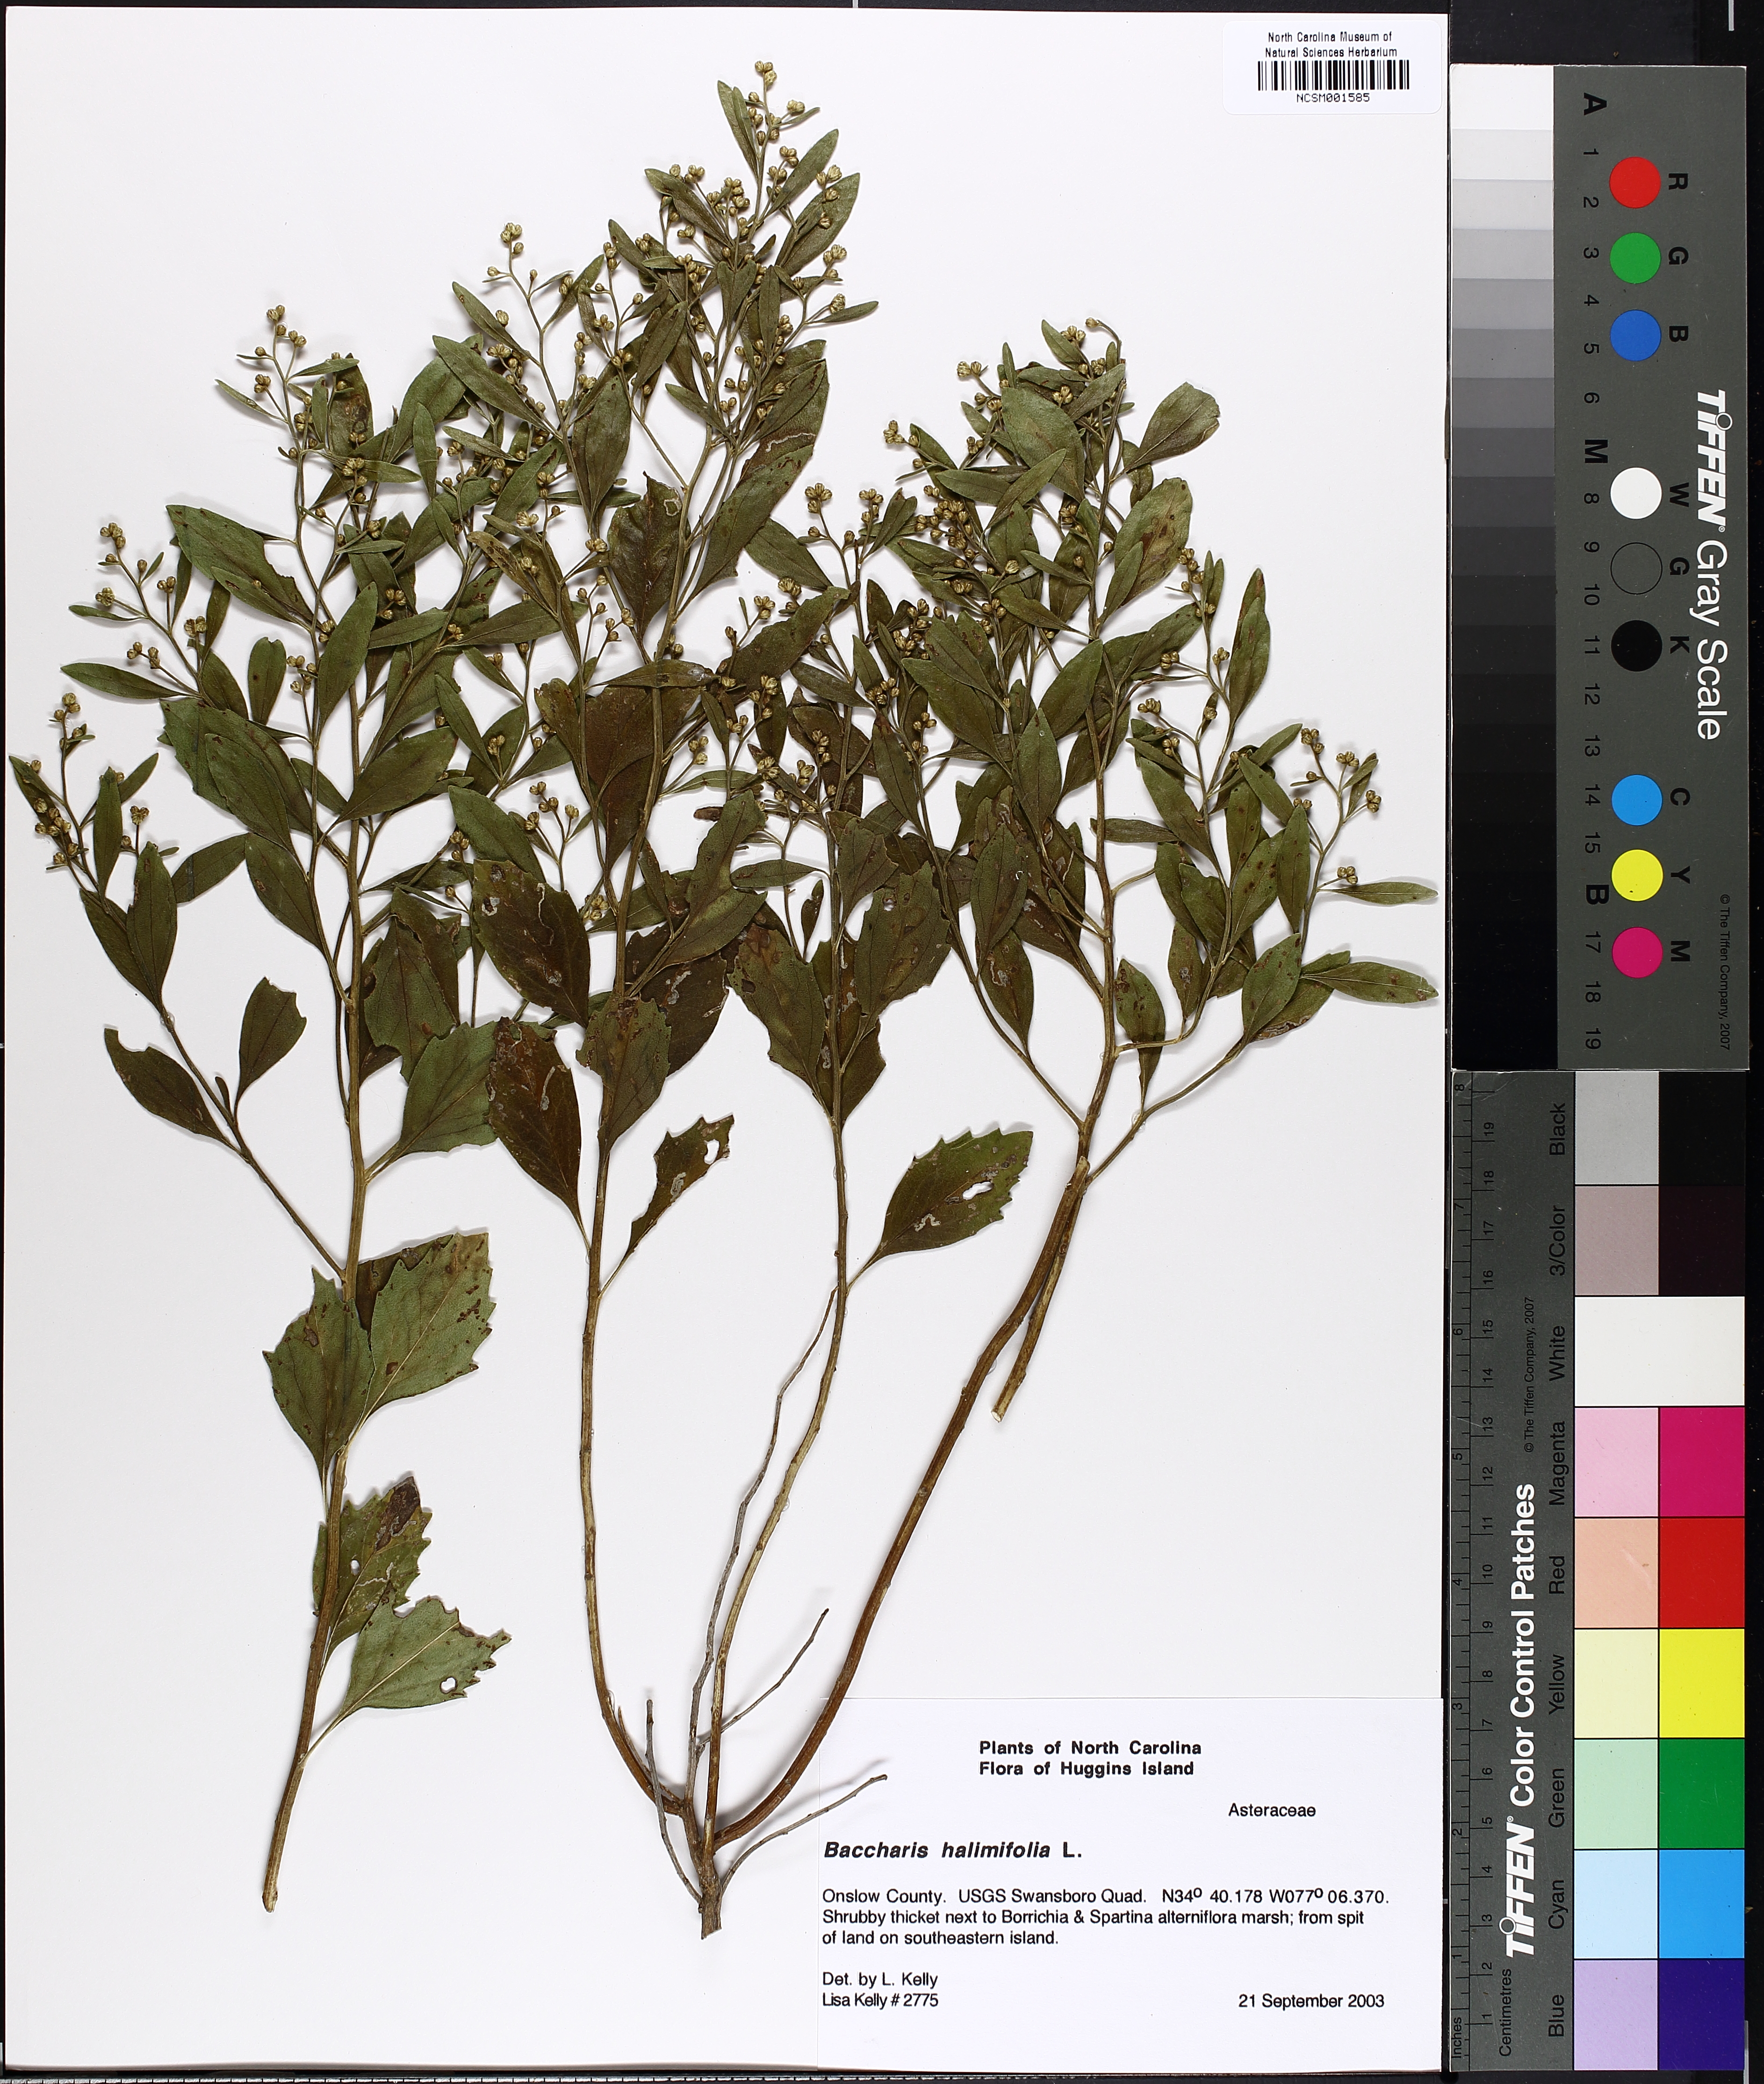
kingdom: Plantae
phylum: Tracheophyta
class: Magnoliopsida
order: Asterales
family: Asteraceae
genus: Nidorella
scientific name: Nidorella ivifolia
